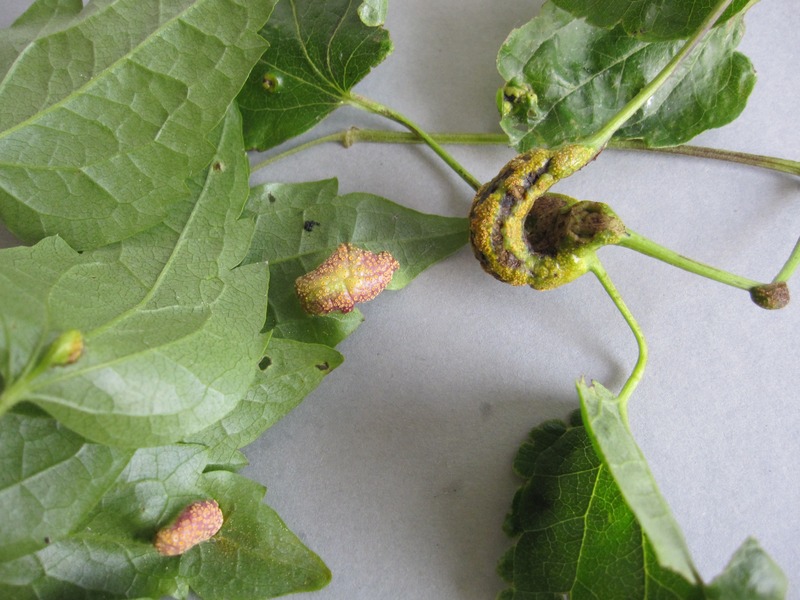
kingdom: Fungi
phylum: Basidiomycota
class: Pucciniomycetes
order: Pucciniales
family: Pucciniaceae
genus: Puccinia
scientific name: Puccinia recondita
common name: Brown rust of wheat
